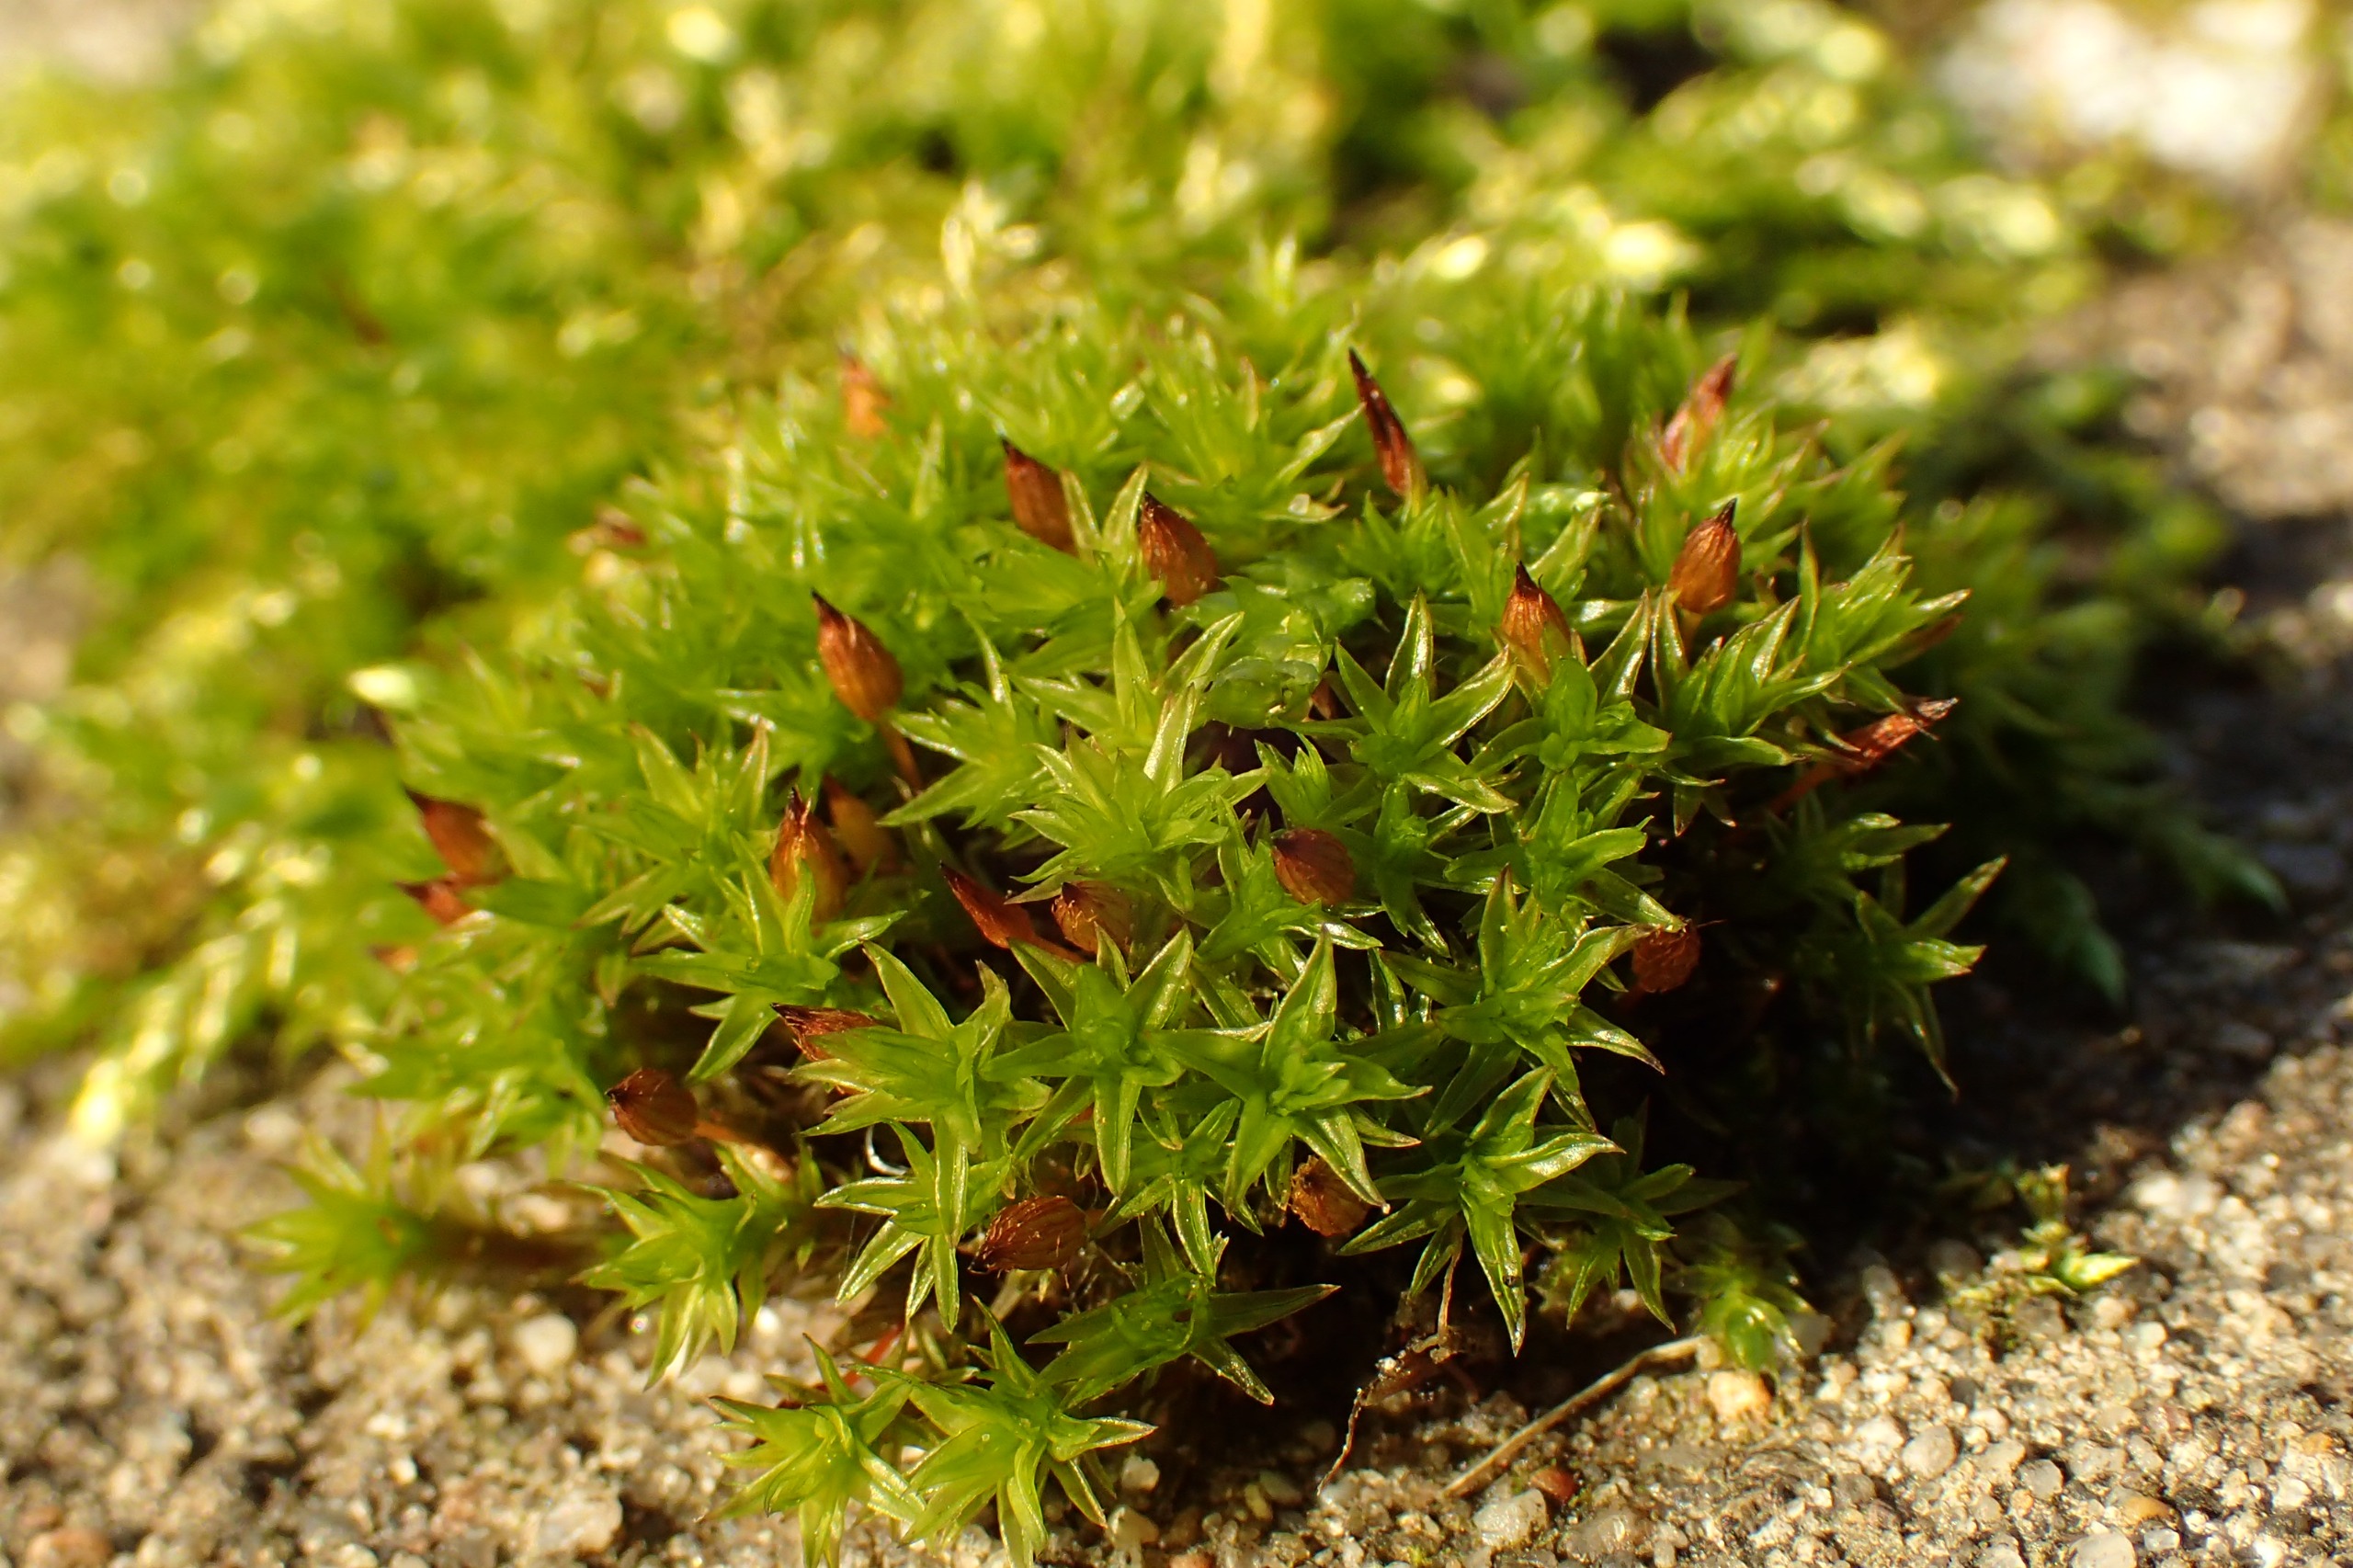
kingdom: Plantae
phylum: Bryophyta
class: Bryopsida
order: Orthotrichales
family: Orthotrichaceae
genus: Orthotrichum
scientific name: Orthotrichum anomalum
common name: Mørk furehætte
